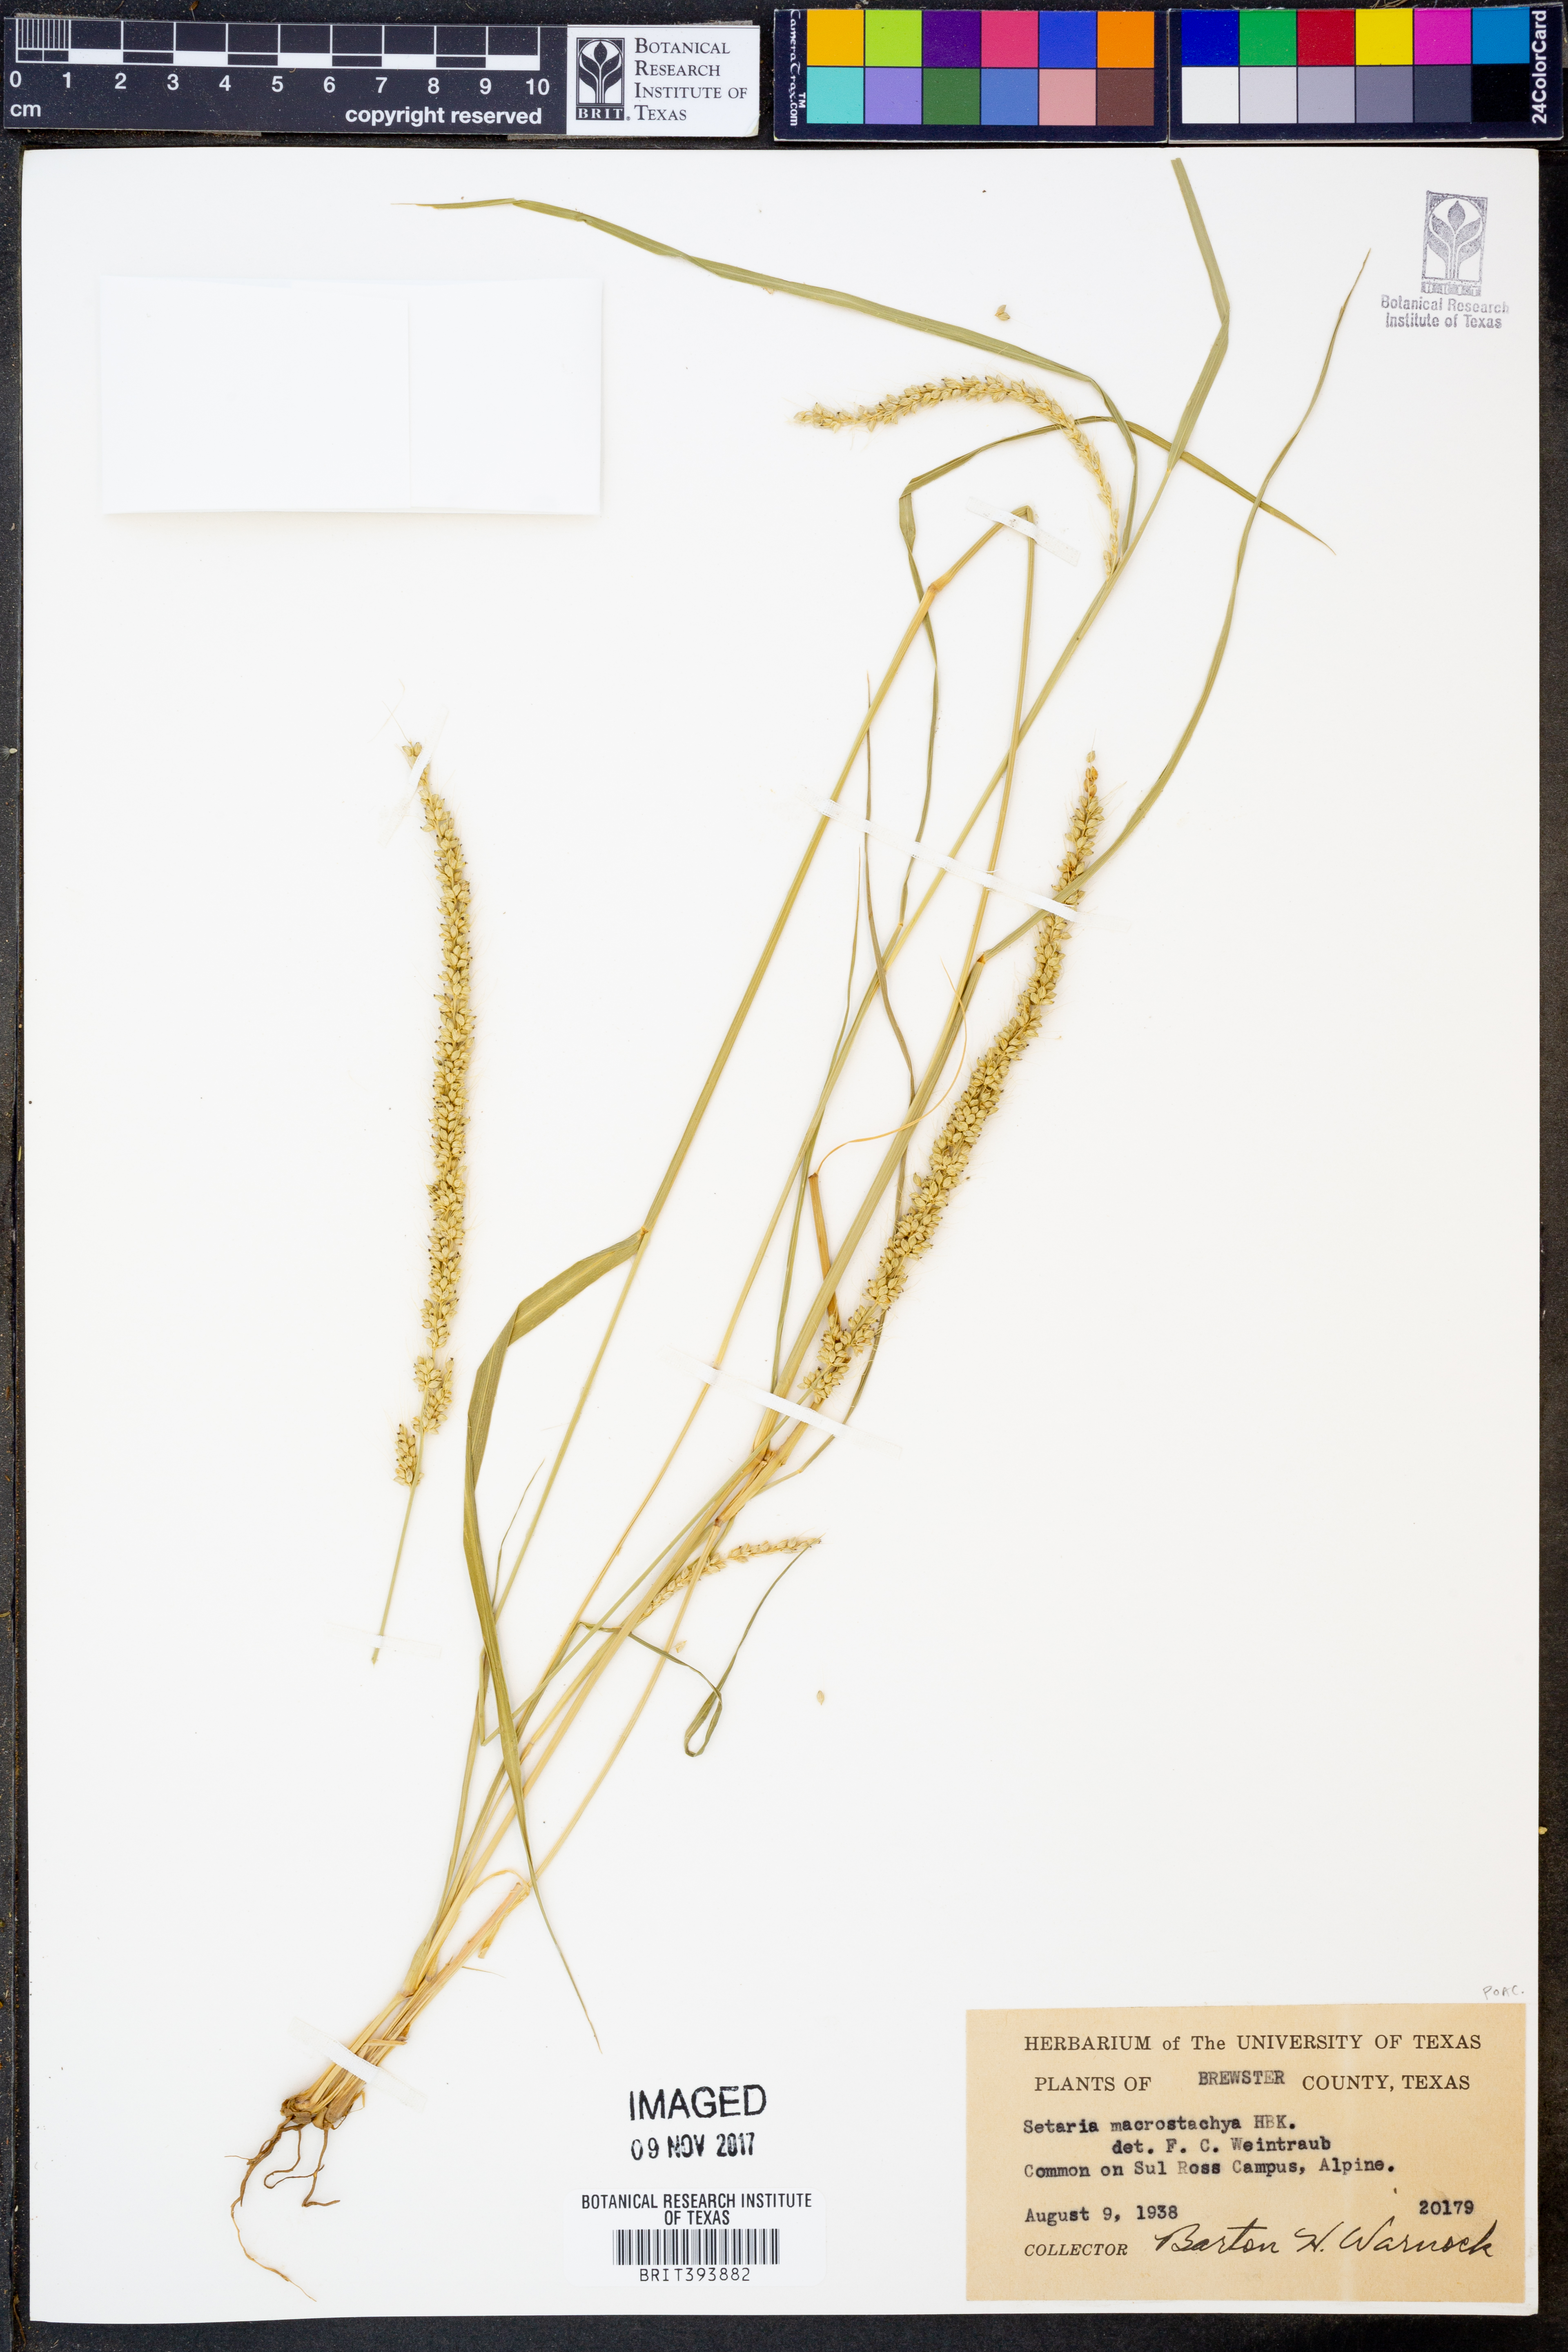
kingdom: Plantae
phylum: Tracheophyta
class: Liliopsida
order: Poales
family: Poaceae
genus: Setaria
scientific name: Setaria macrostachya
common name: Plains bristle grass
